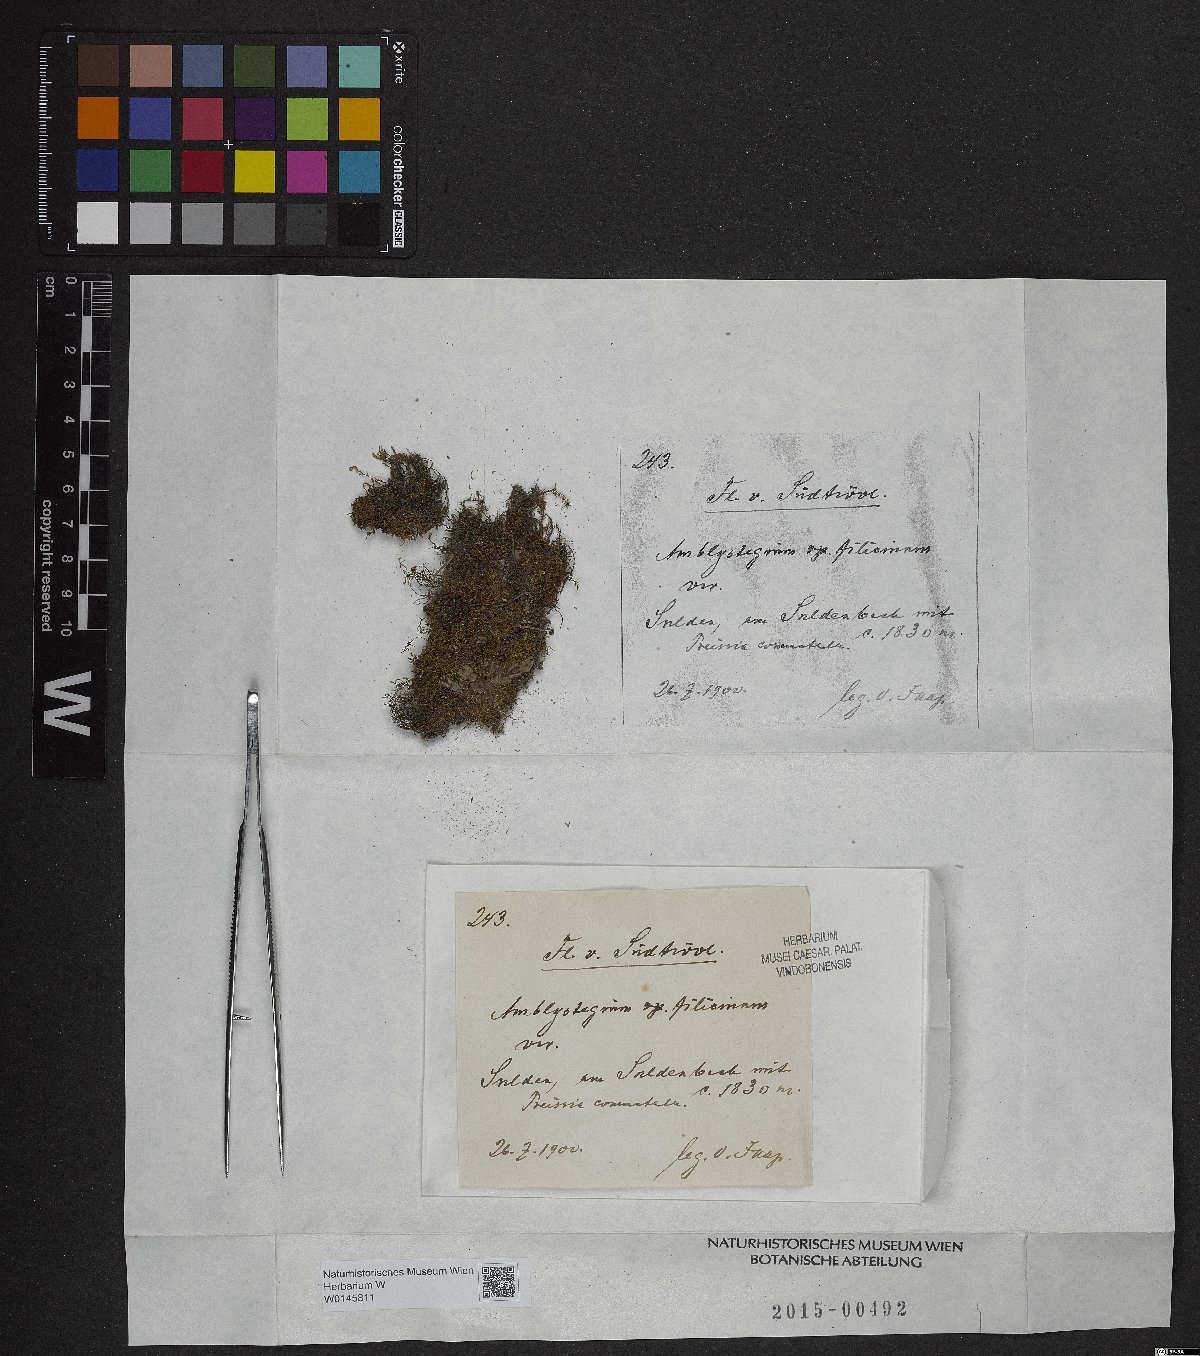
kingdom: Plantae
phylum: Bryophyta
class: Bryopsida
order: Hypnales
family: Amblystegiaceae
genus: Cratoneuron
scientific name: Cratoneuron filicinum
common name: Fern-leaved hook moss
